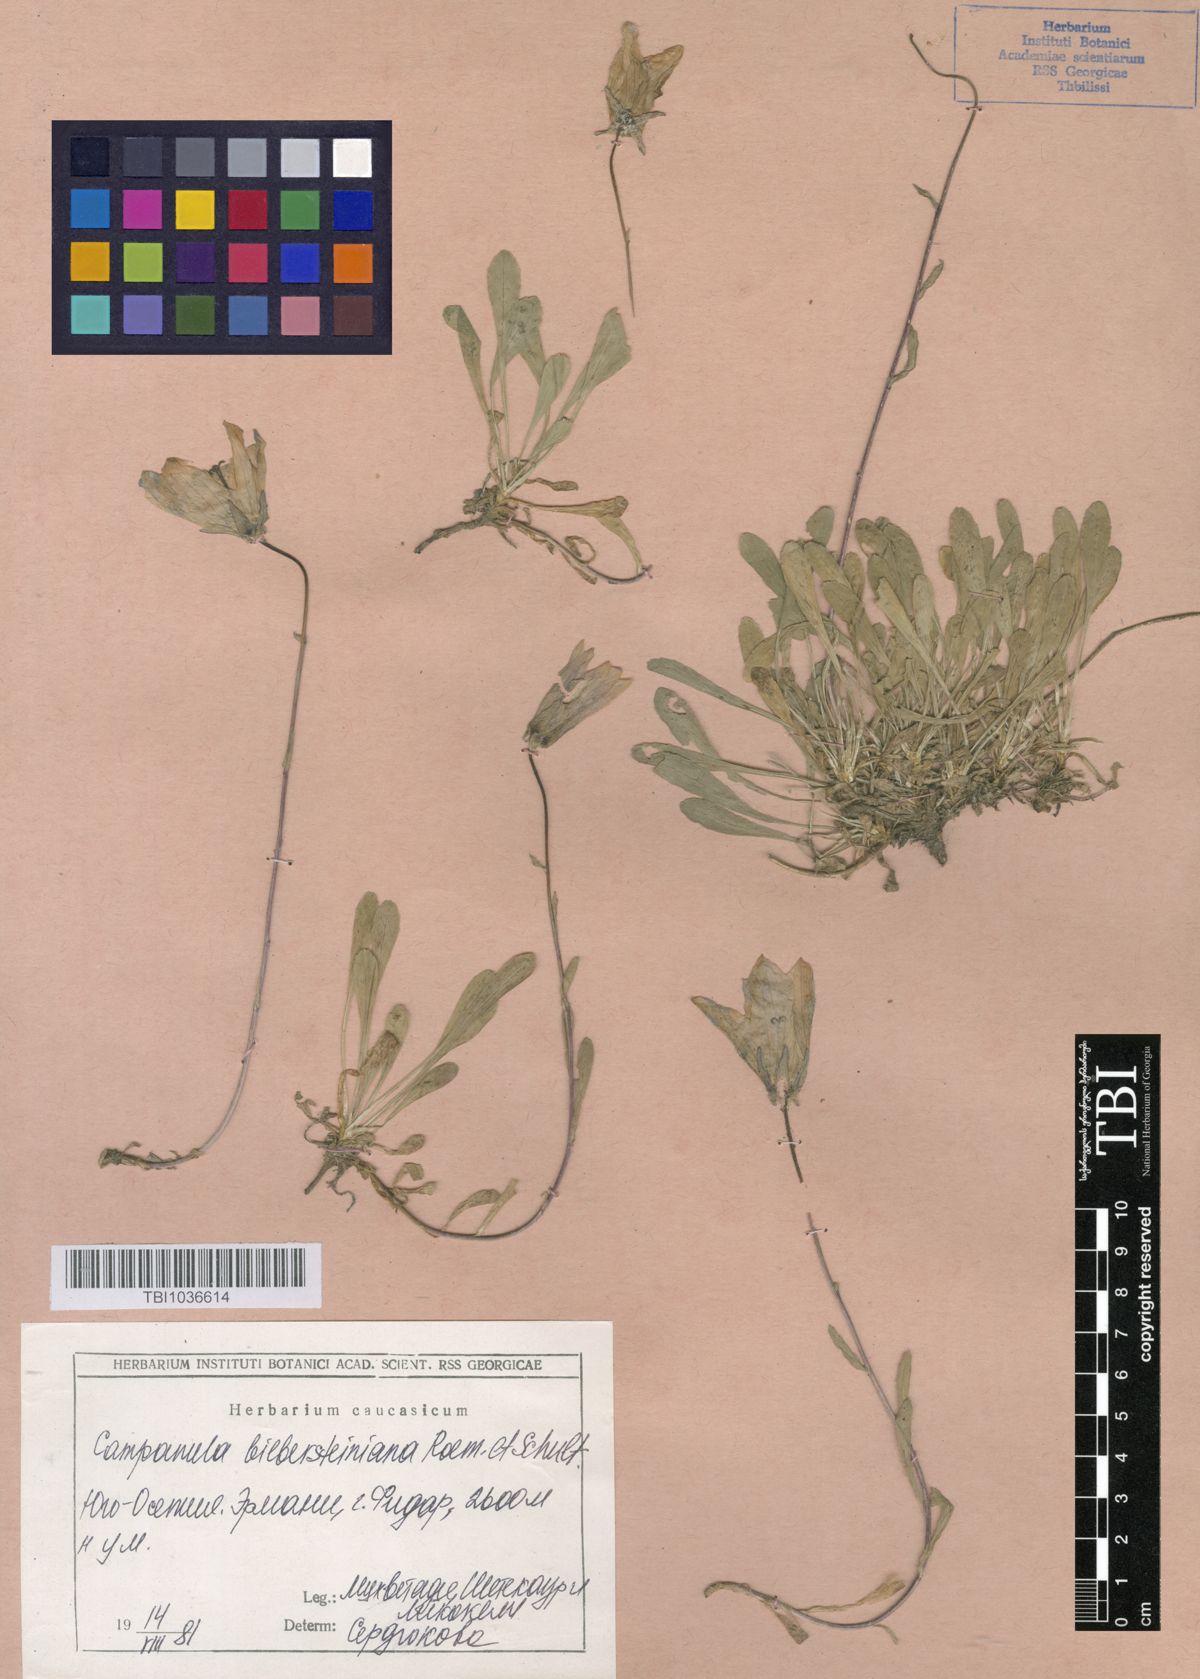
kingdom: Plantae
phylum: Tracheophyta
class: Magnoliopsida
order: Asterales
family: Campanulaceae
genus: Campanula
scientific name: Campanula tridentata
